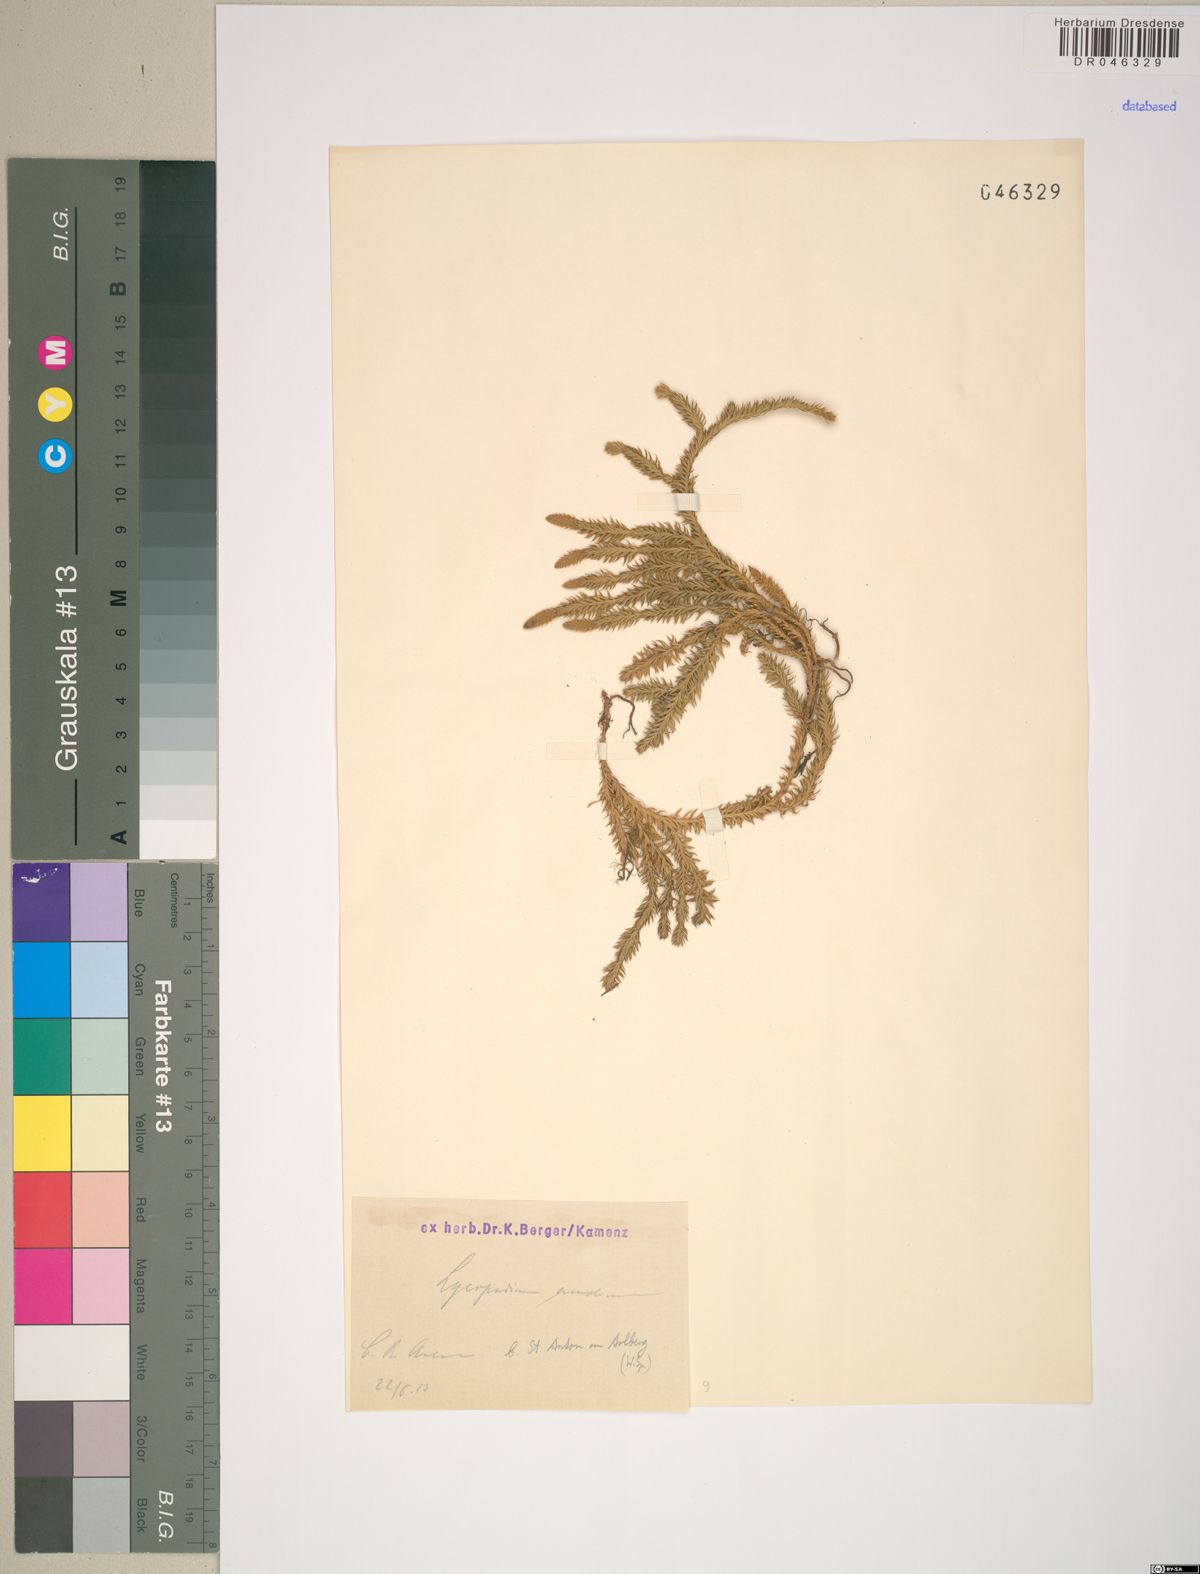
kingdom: Plantae
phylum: Tracheophyta
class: Lycopodiopsida
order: Lycopodiales
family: Lycopodiaceae
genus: Spinulum
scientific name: Spinulum annotinum
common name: Interrupted club-moss
